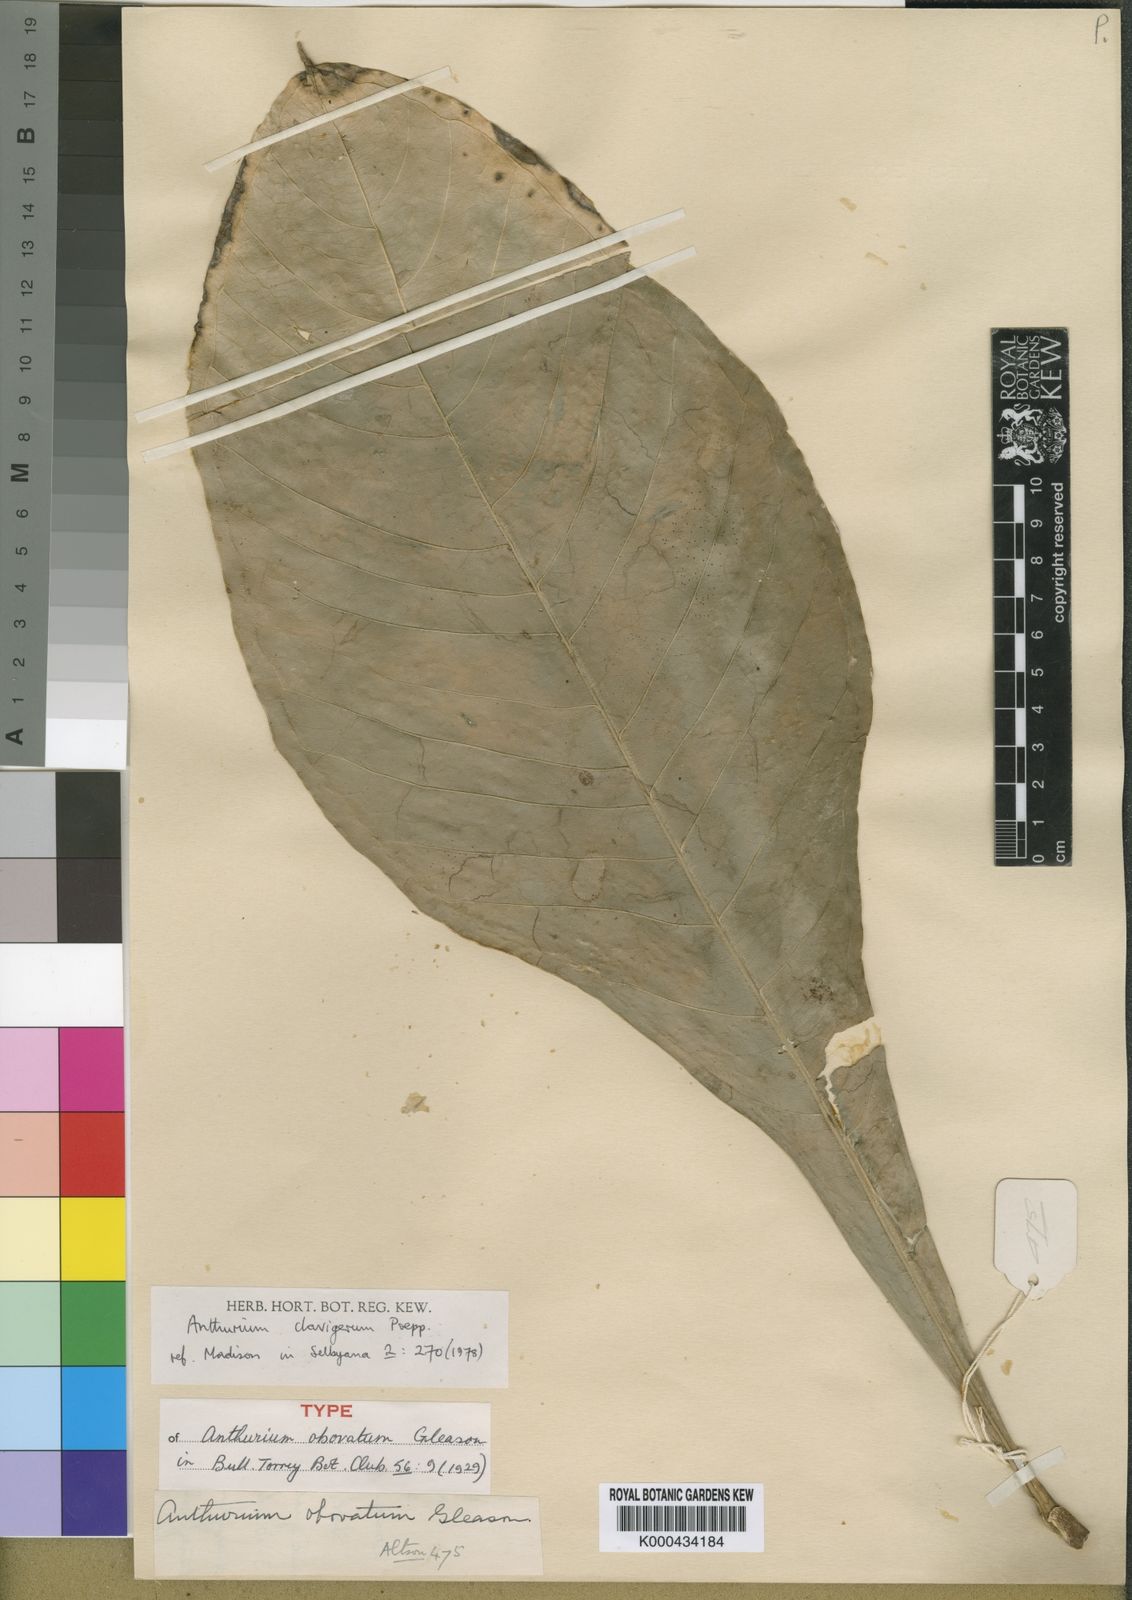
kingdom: Plantae
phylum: Tracheophyta
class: Liliopsida
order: Alismatales
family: Araceae
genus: Anthurium
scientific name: Anthurium sinuatum
